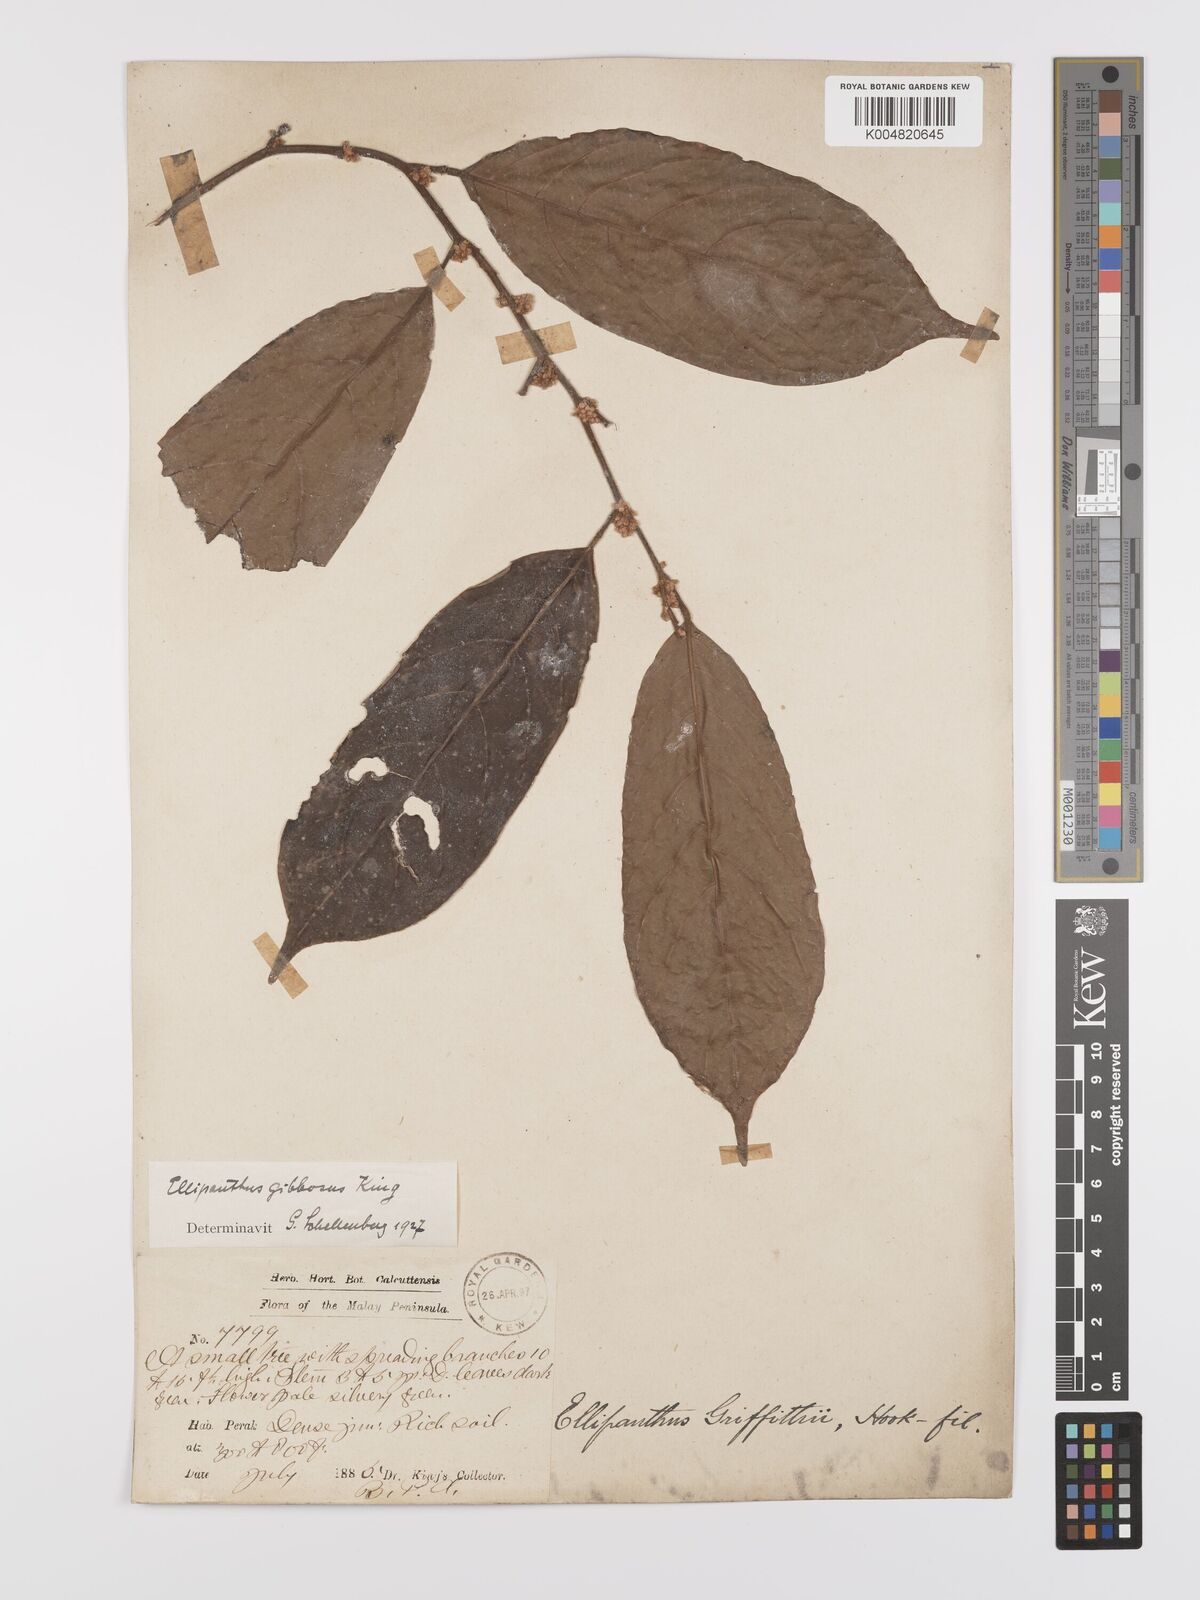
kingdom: Plantae
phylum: Tracheophyta
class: Magnoliopsida
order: Oxalidales
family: Connaraceae
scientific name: Connaraceae
